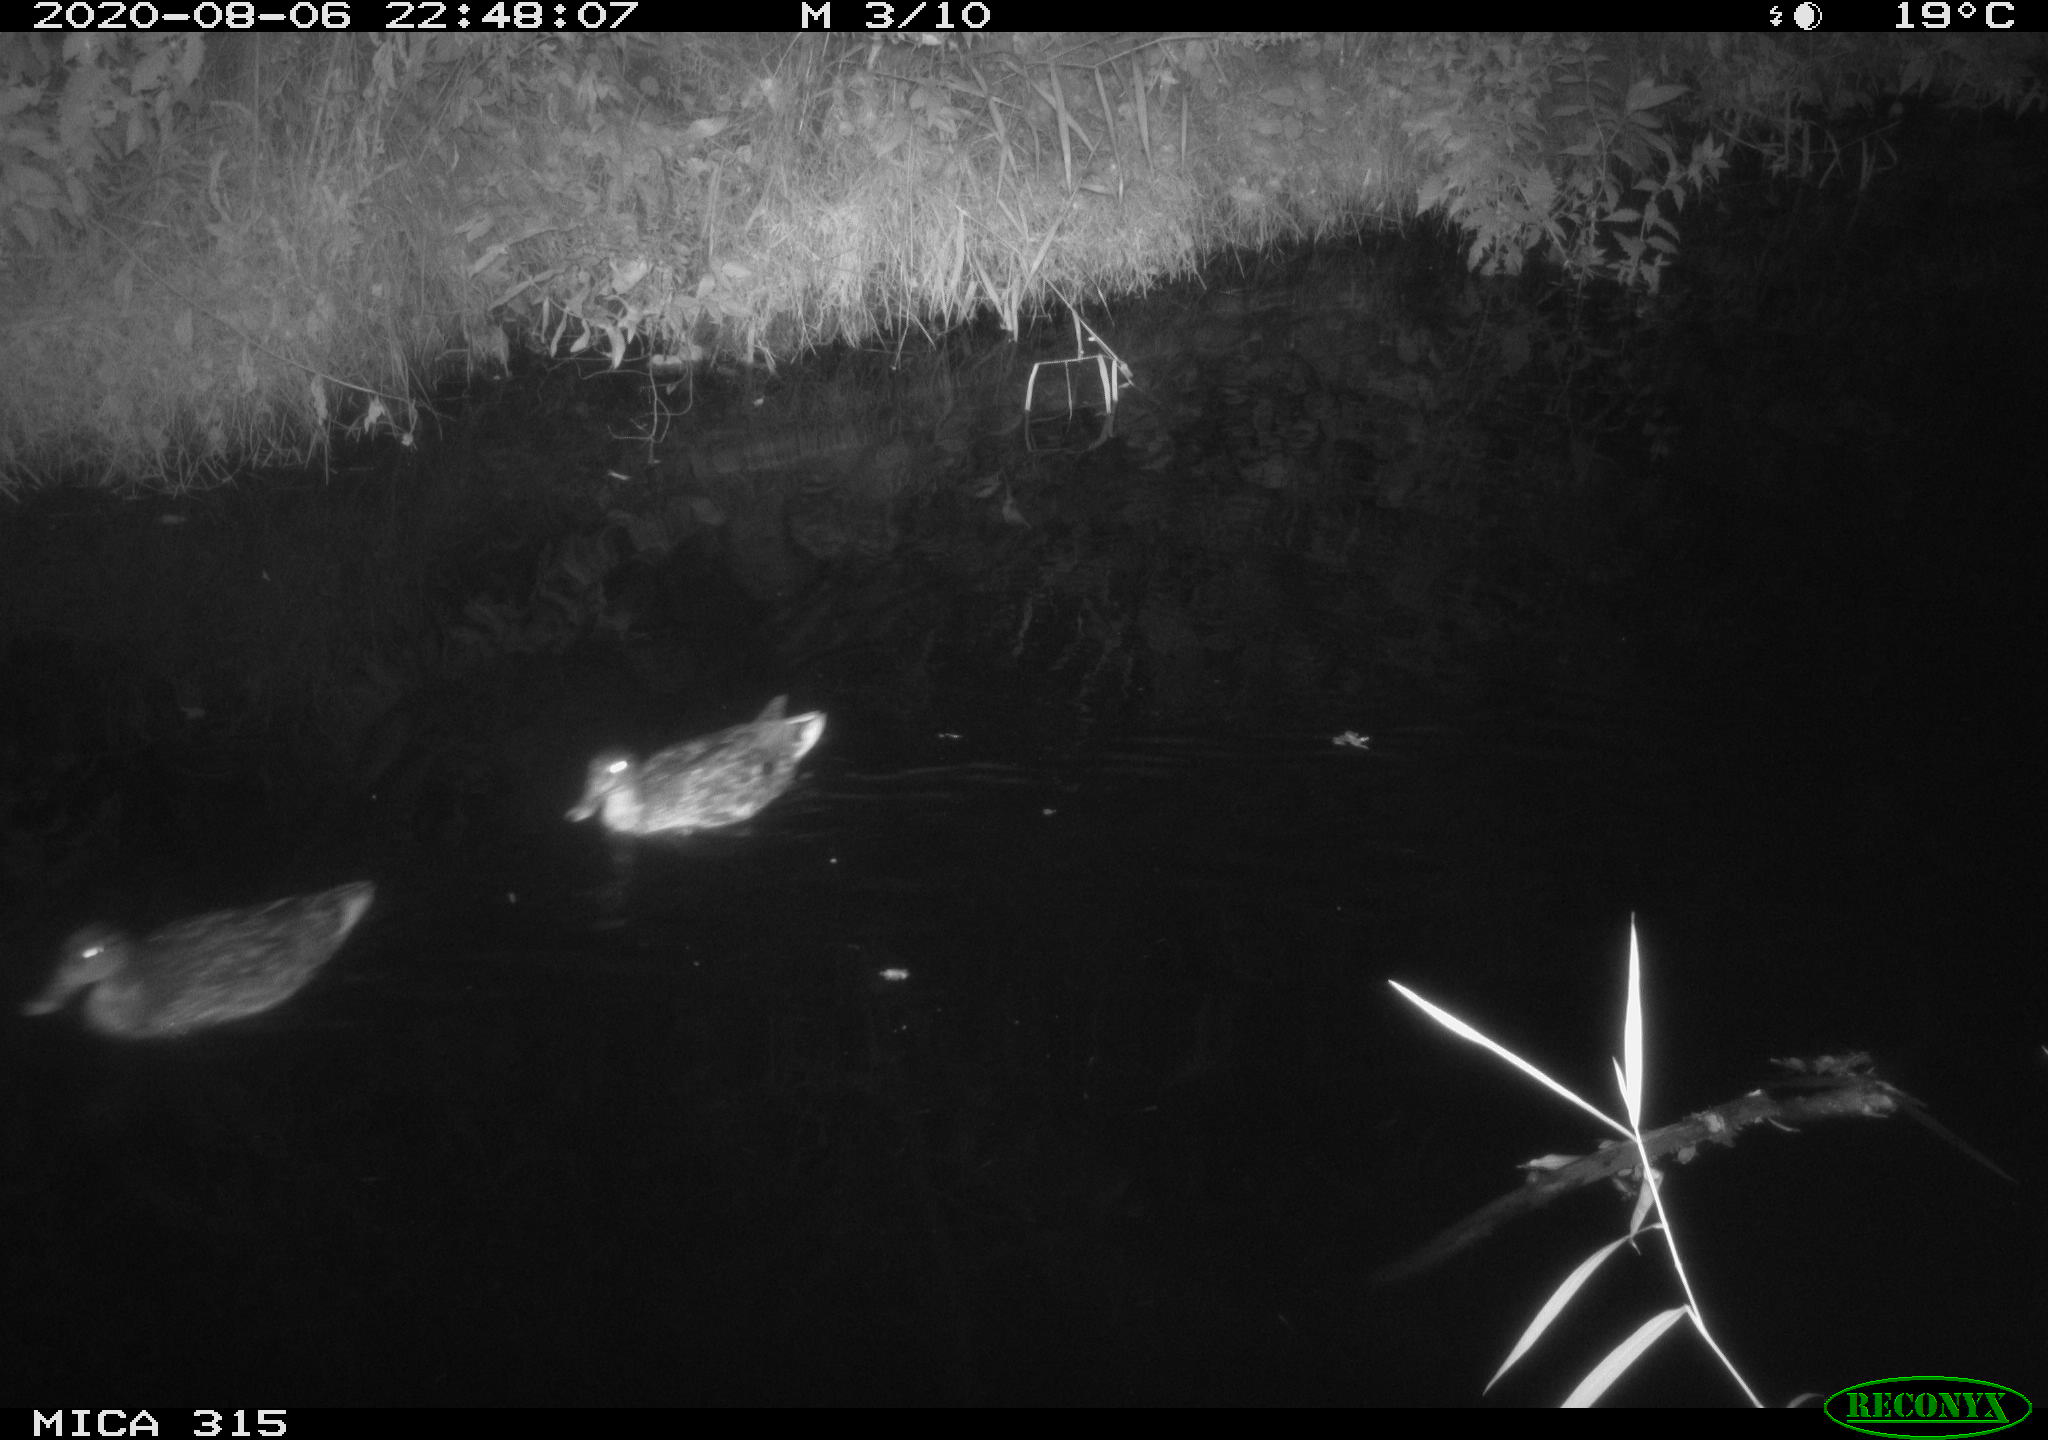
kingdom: Animalia
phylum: Chordata
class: Aves
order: Anseriformes
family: Anatidae
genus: Anas
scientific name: Anas platyrhynchos
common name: Mallard
